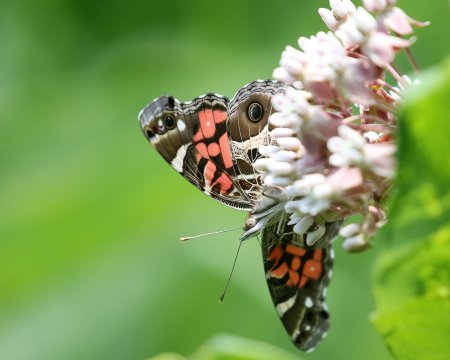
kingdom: Animalia
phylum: Arthropoda
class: Insecta
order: Lepidoptera
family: Nymphalidae
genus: Vanessa
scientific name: Vanessa virginiensis
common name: American Lady
